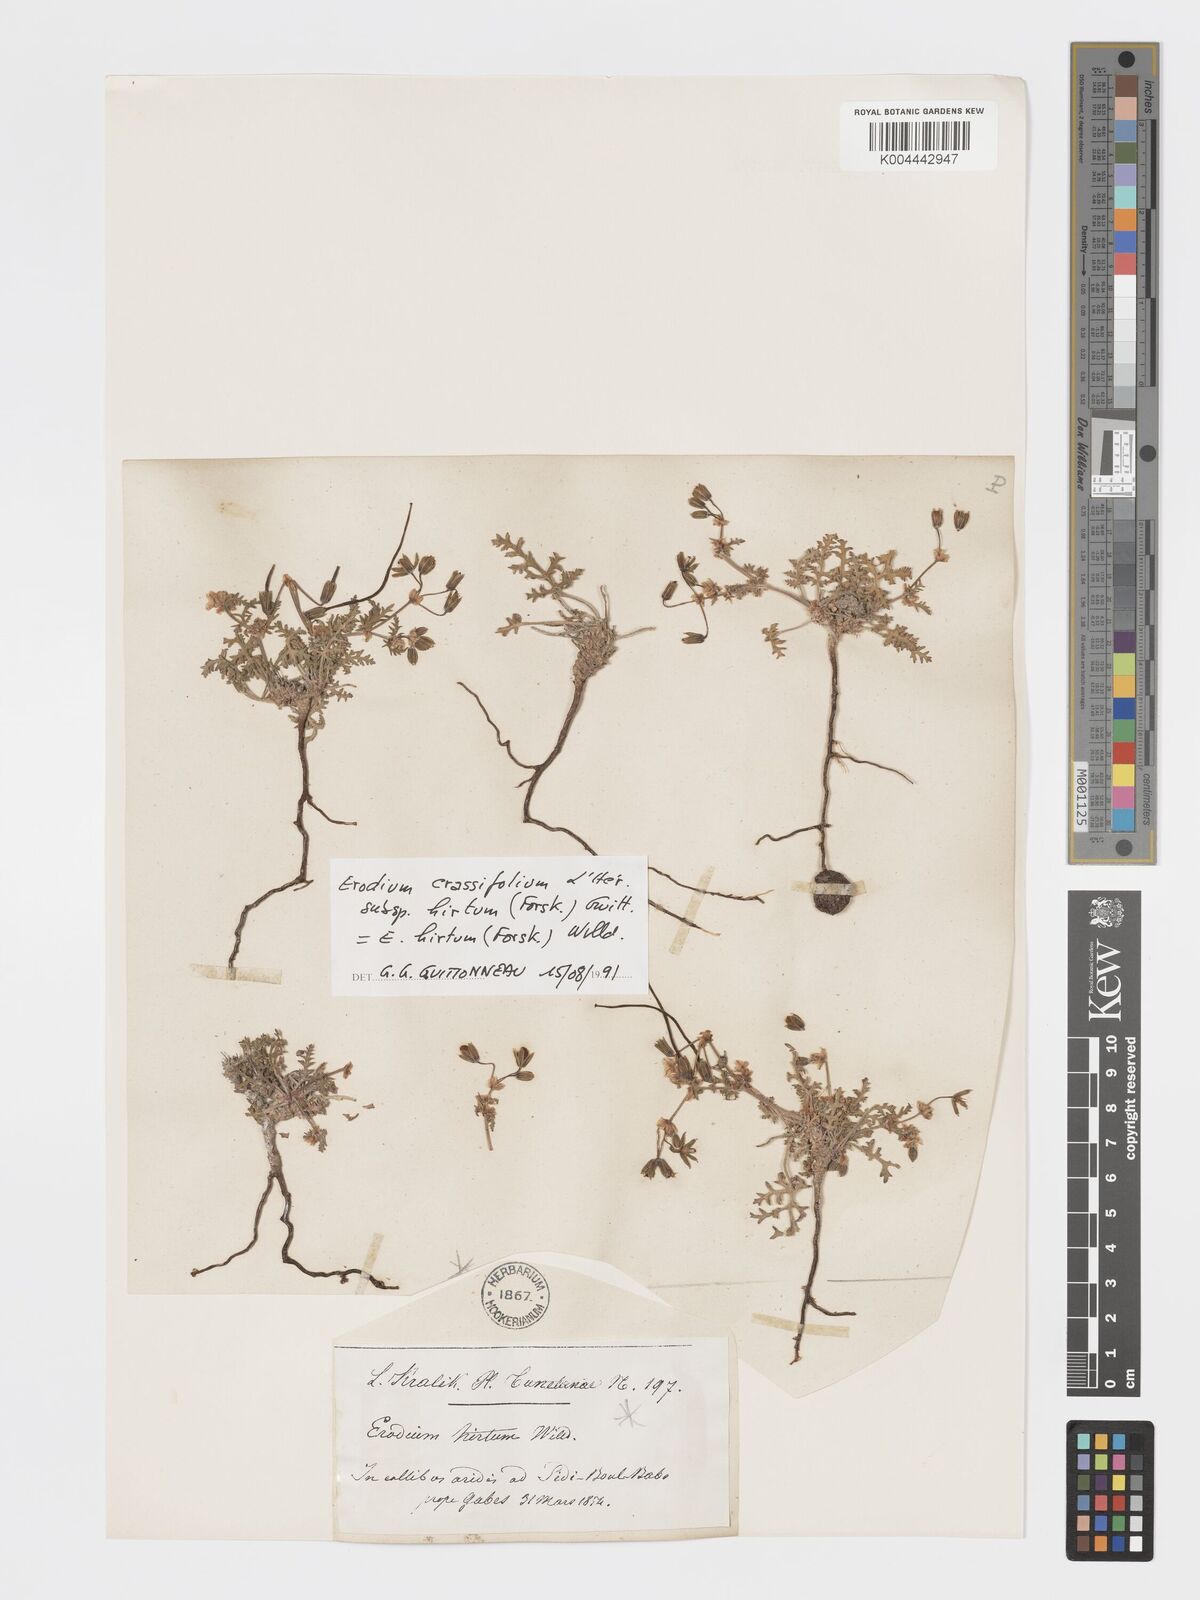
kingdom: Plantae
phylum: Tracheophyta
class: Magnoliopsida
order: Geraniales
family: Geraniaceae
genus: Erodium
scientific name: Erodium crassifolium
